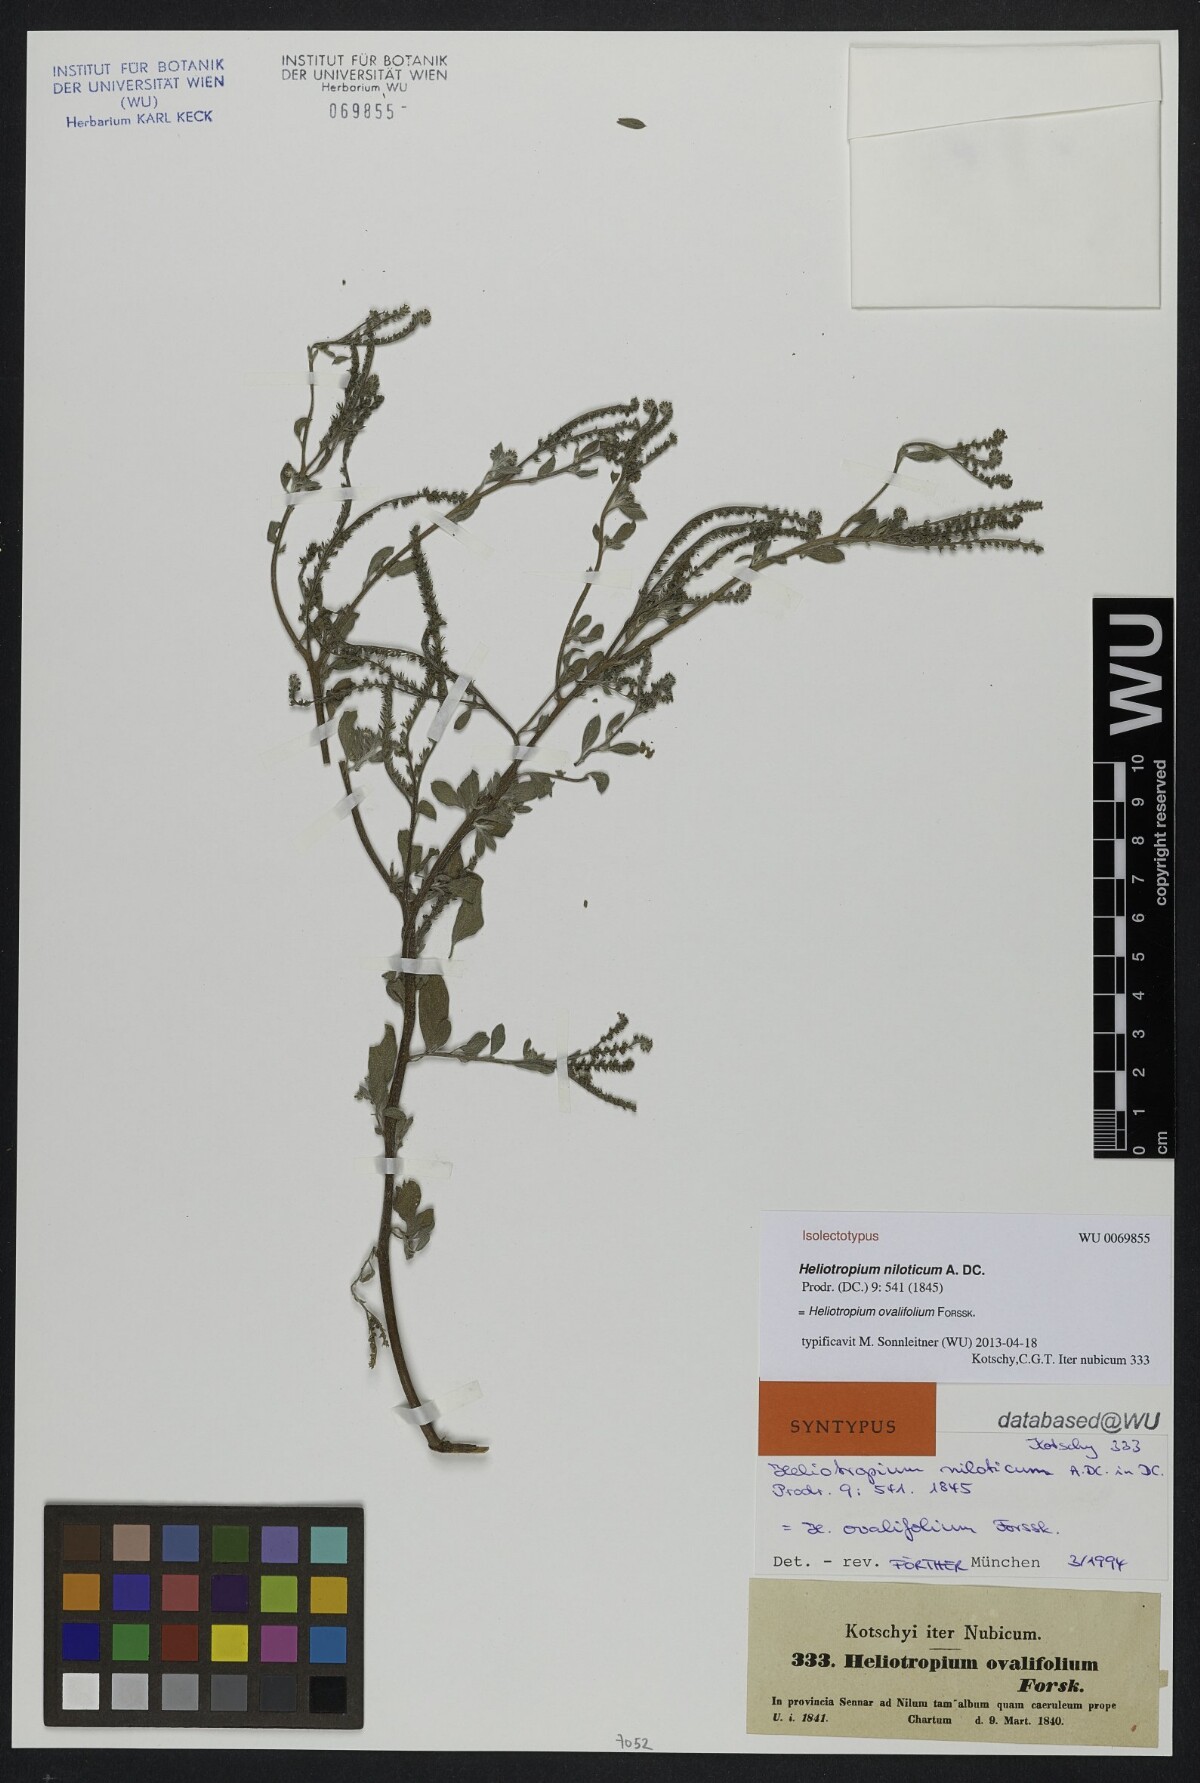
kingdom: Plantae
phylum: Tracheophyta
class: Magnoliopsida
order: Boraginales
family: Heliotropiaceae
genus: Euploca
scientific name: Euploca ovalifolia
